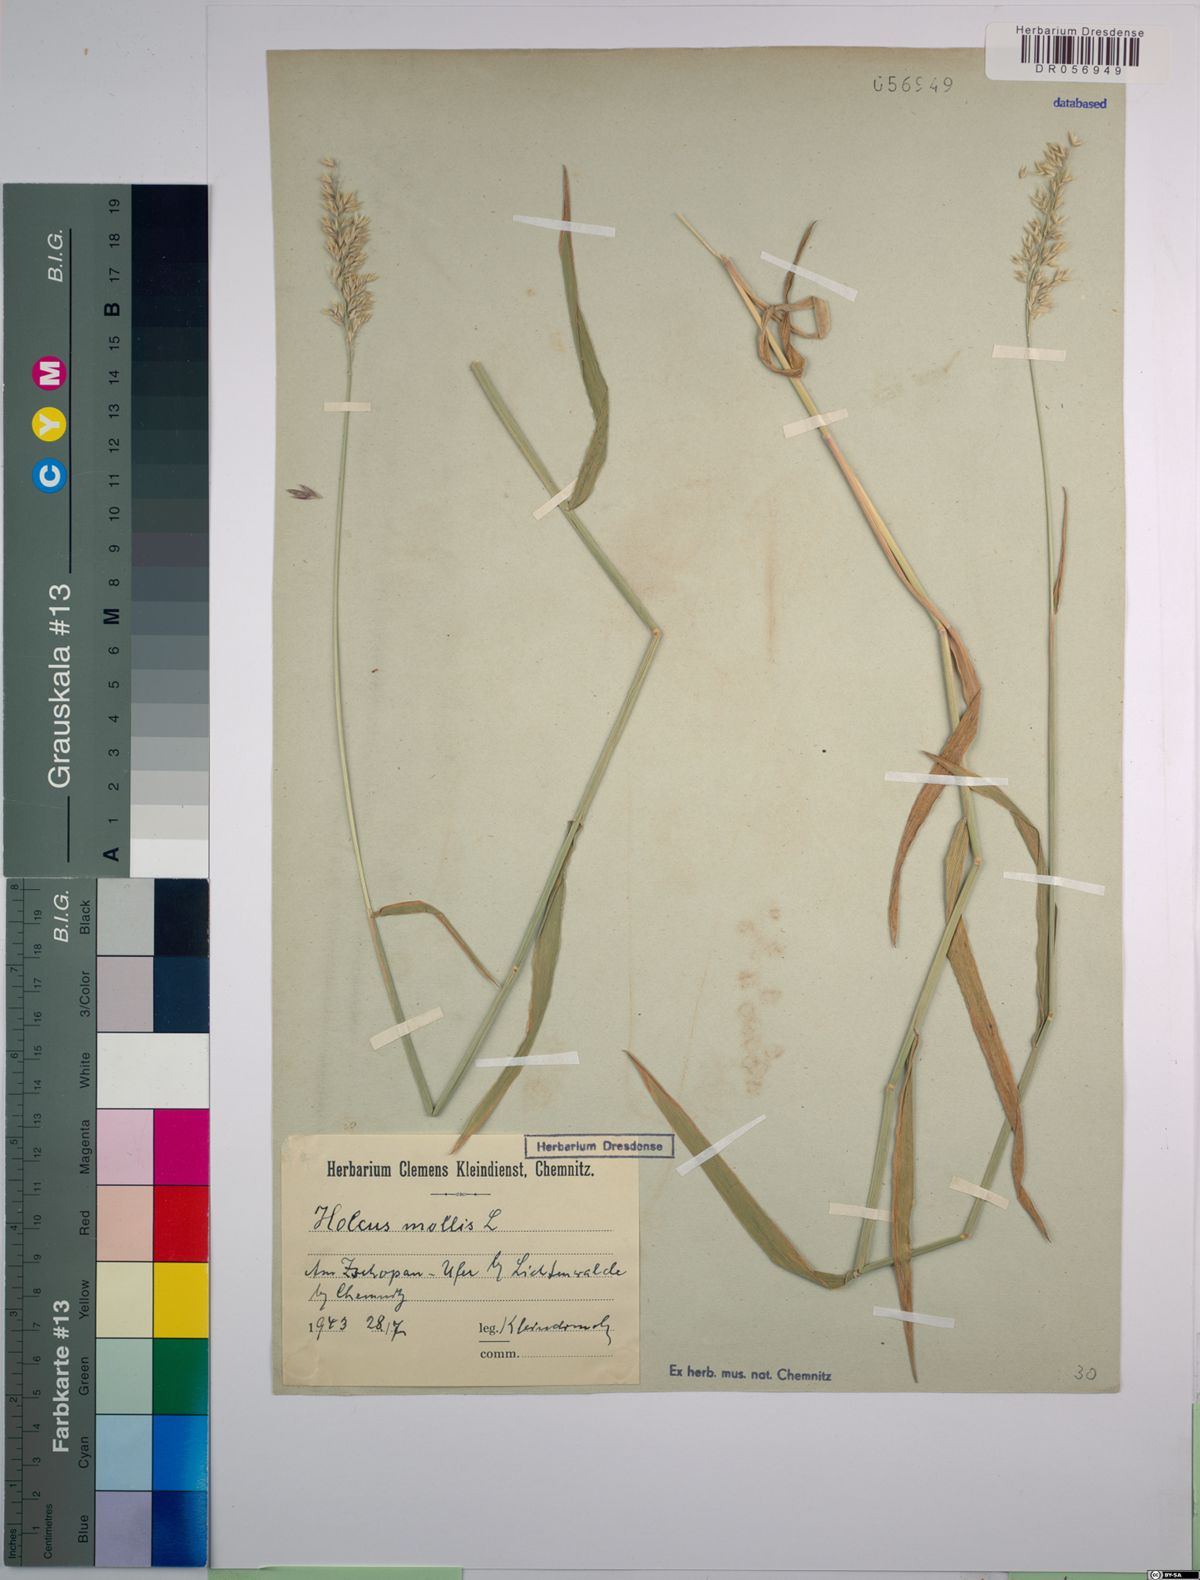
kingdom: Plantae
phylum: Tracheophyta
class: Liliopsida
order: Poales
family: Poaceae
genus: Holcus
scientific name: Holcus mollis
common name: Creeping velvetgrass
